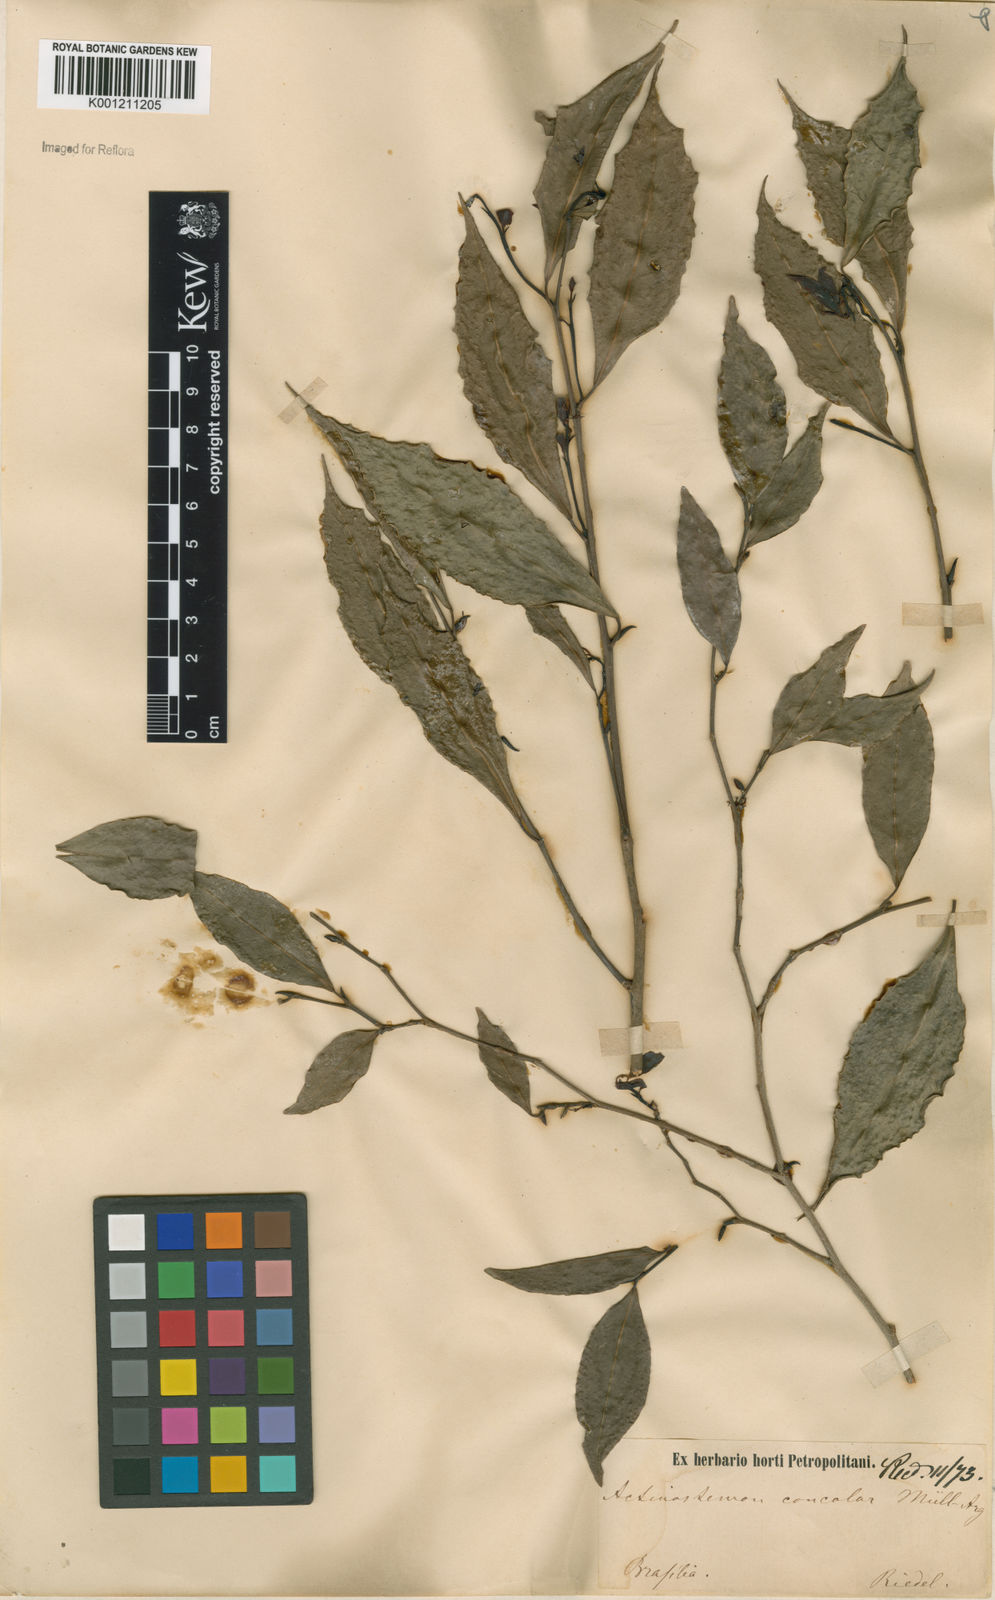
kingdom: Plantae
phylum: Tracheophyta
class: Magnoliopsida
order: Malpighiales
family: Euphorbiaceae
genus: Actinostemon
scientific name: Actinostemon
